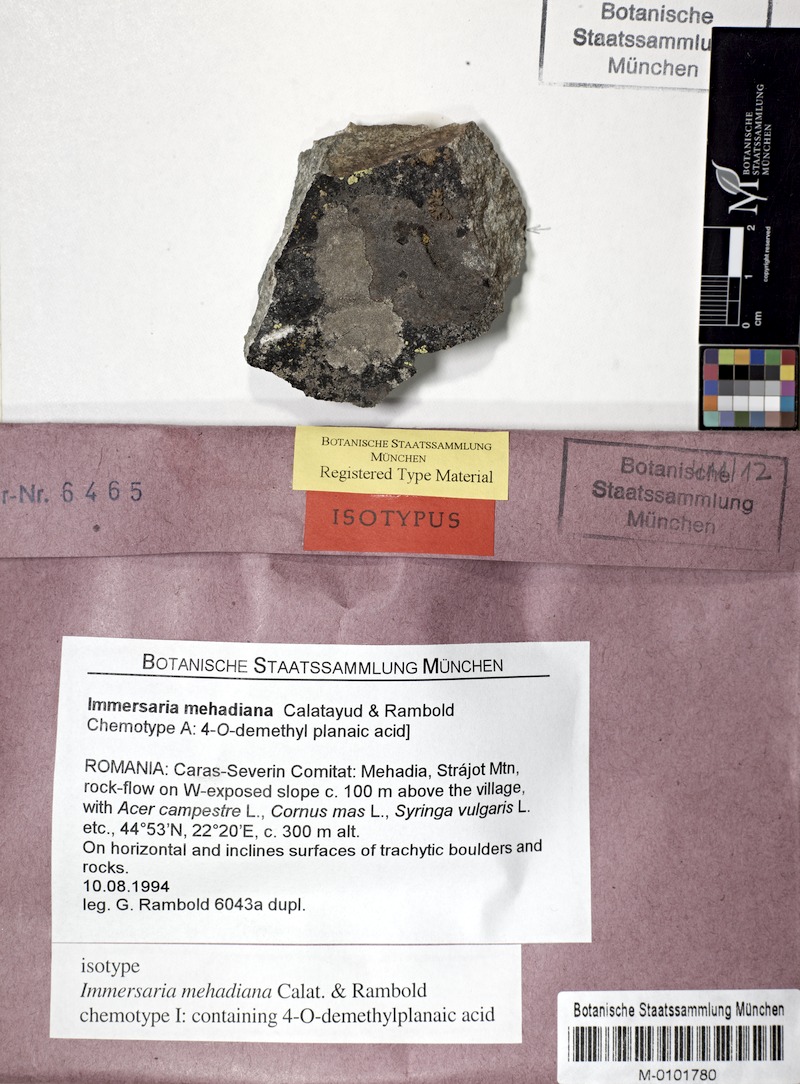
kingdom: Fungi
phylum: Ascomycota
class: Lecanoromycetes
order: Lecideales
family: Lecideaceae
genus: Immersaria
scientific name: Immersaria
